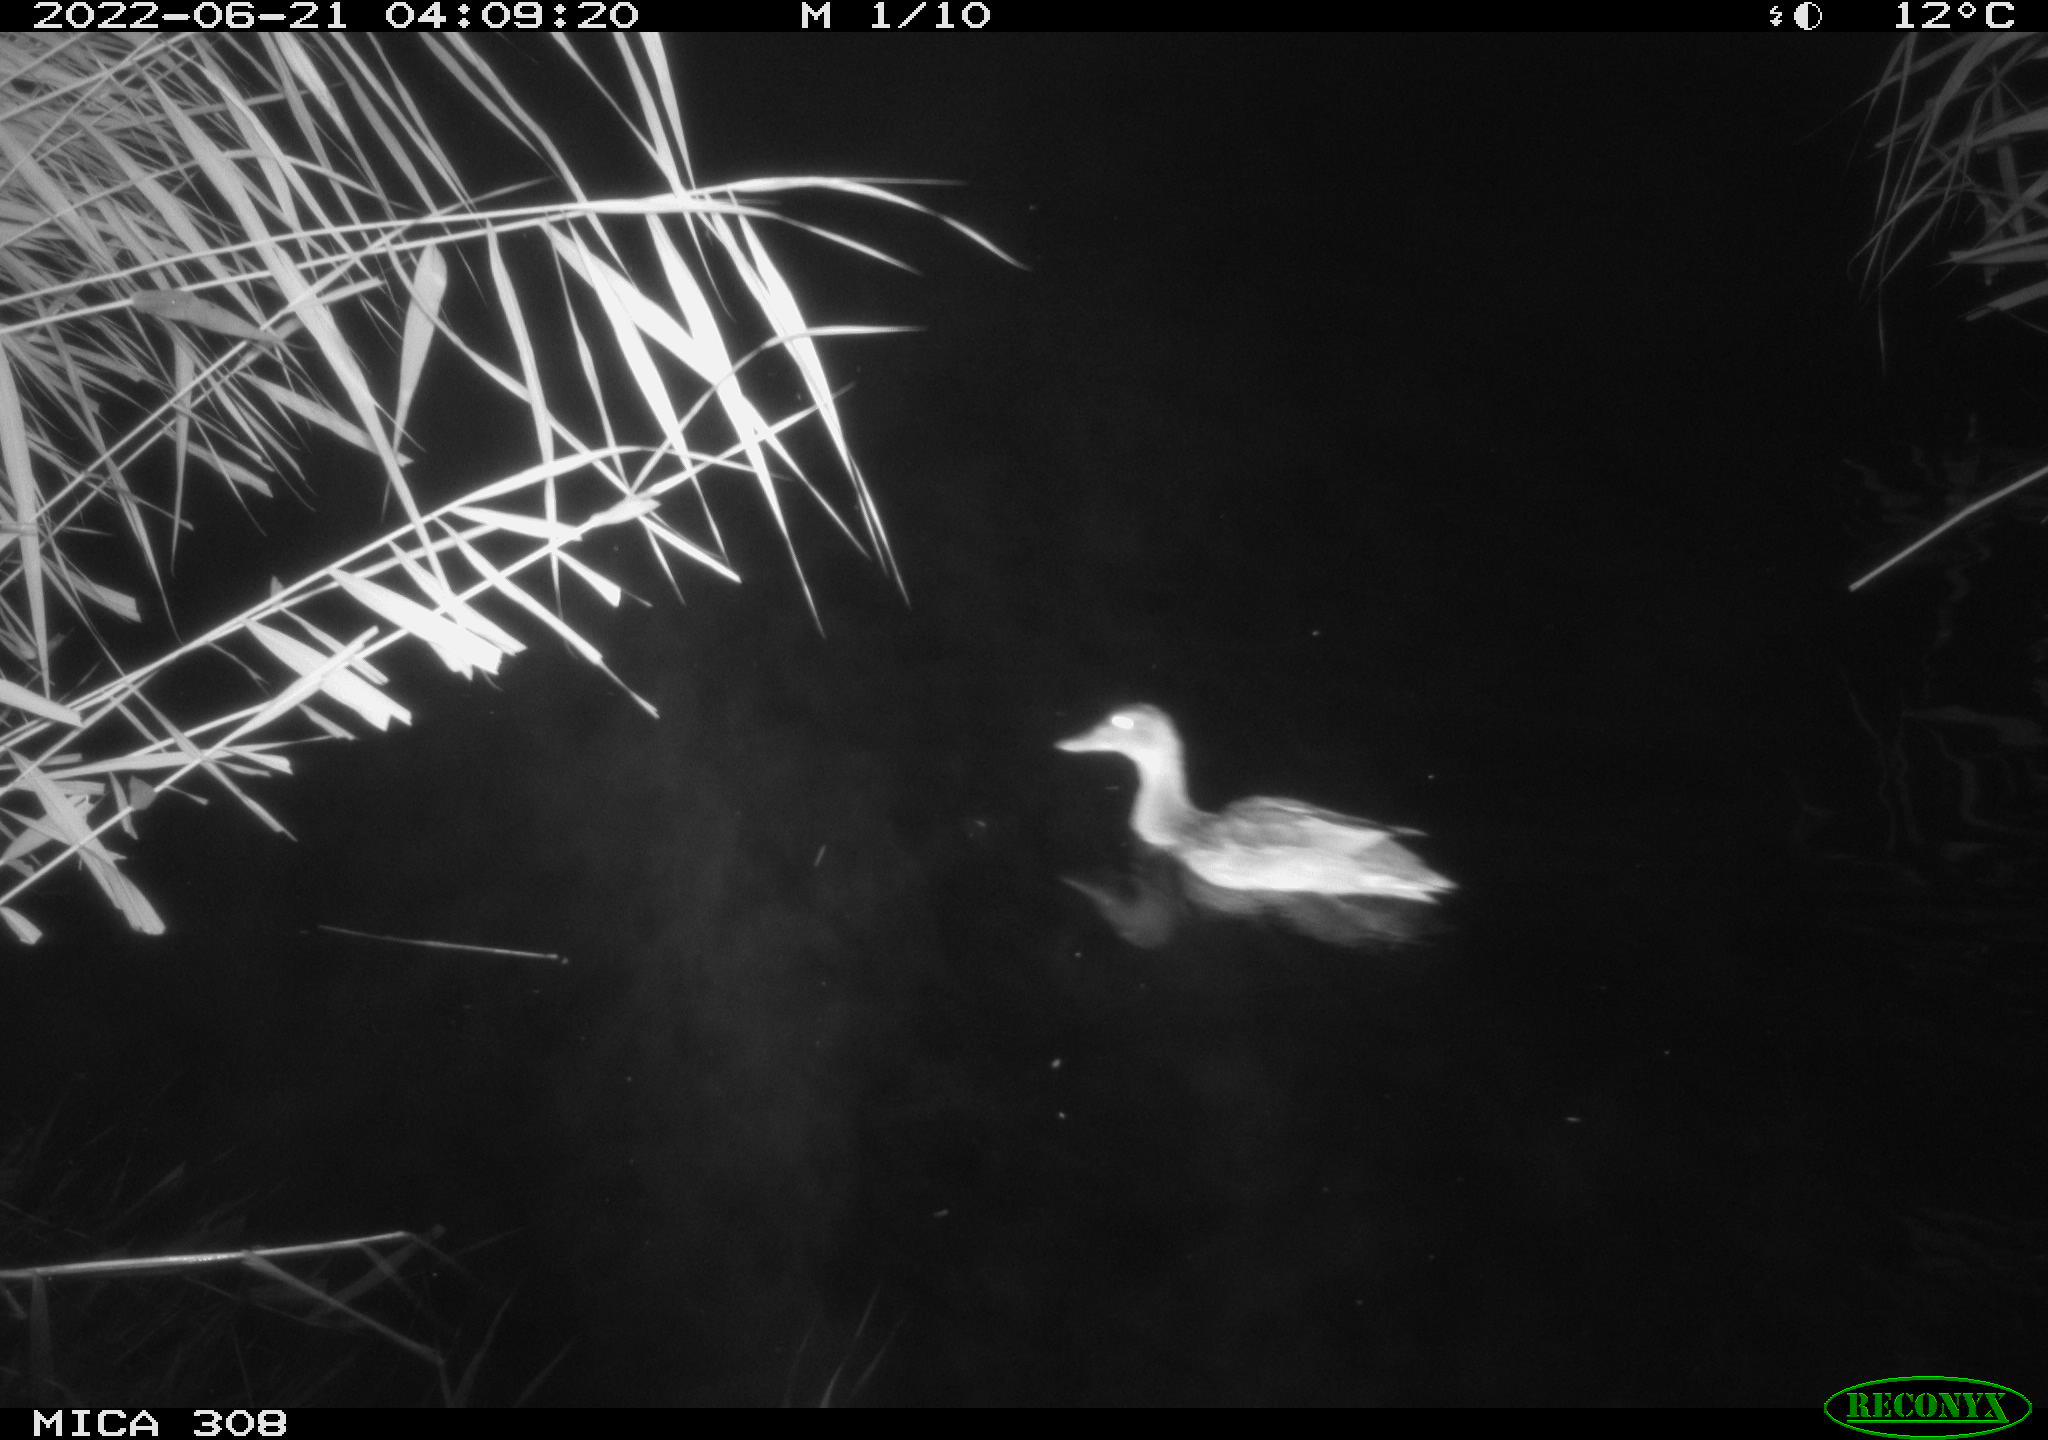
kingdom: Animalia
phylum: Chordata
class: Aves
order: Anseriformes
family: Anatidae
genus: Anas
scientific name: Anas platyrhynchos
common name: Mallard
